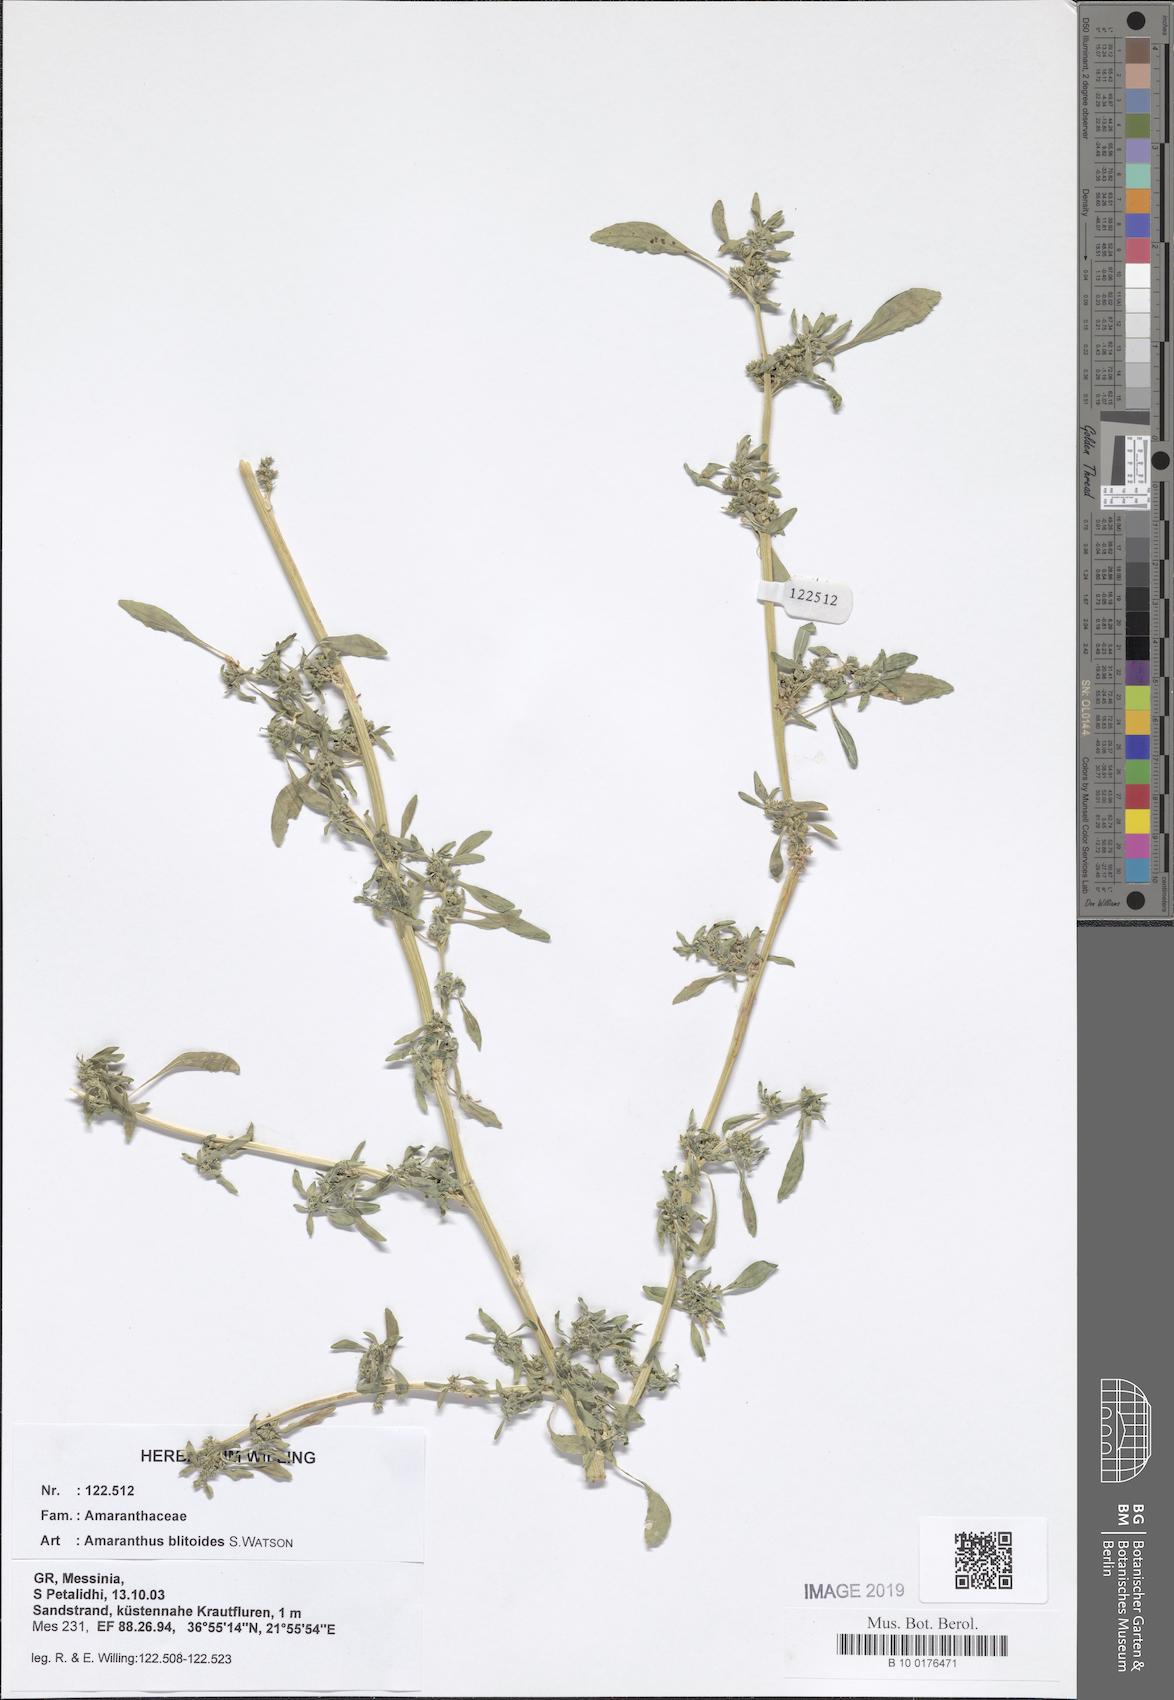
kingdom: Plantae
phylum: Tracheophyta
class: Magnoliopsida
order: Caryophyllales
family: Amaranthaceae
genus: Amaranthus
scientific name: Amaranthus blitoides
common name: Prostrate pigweed
